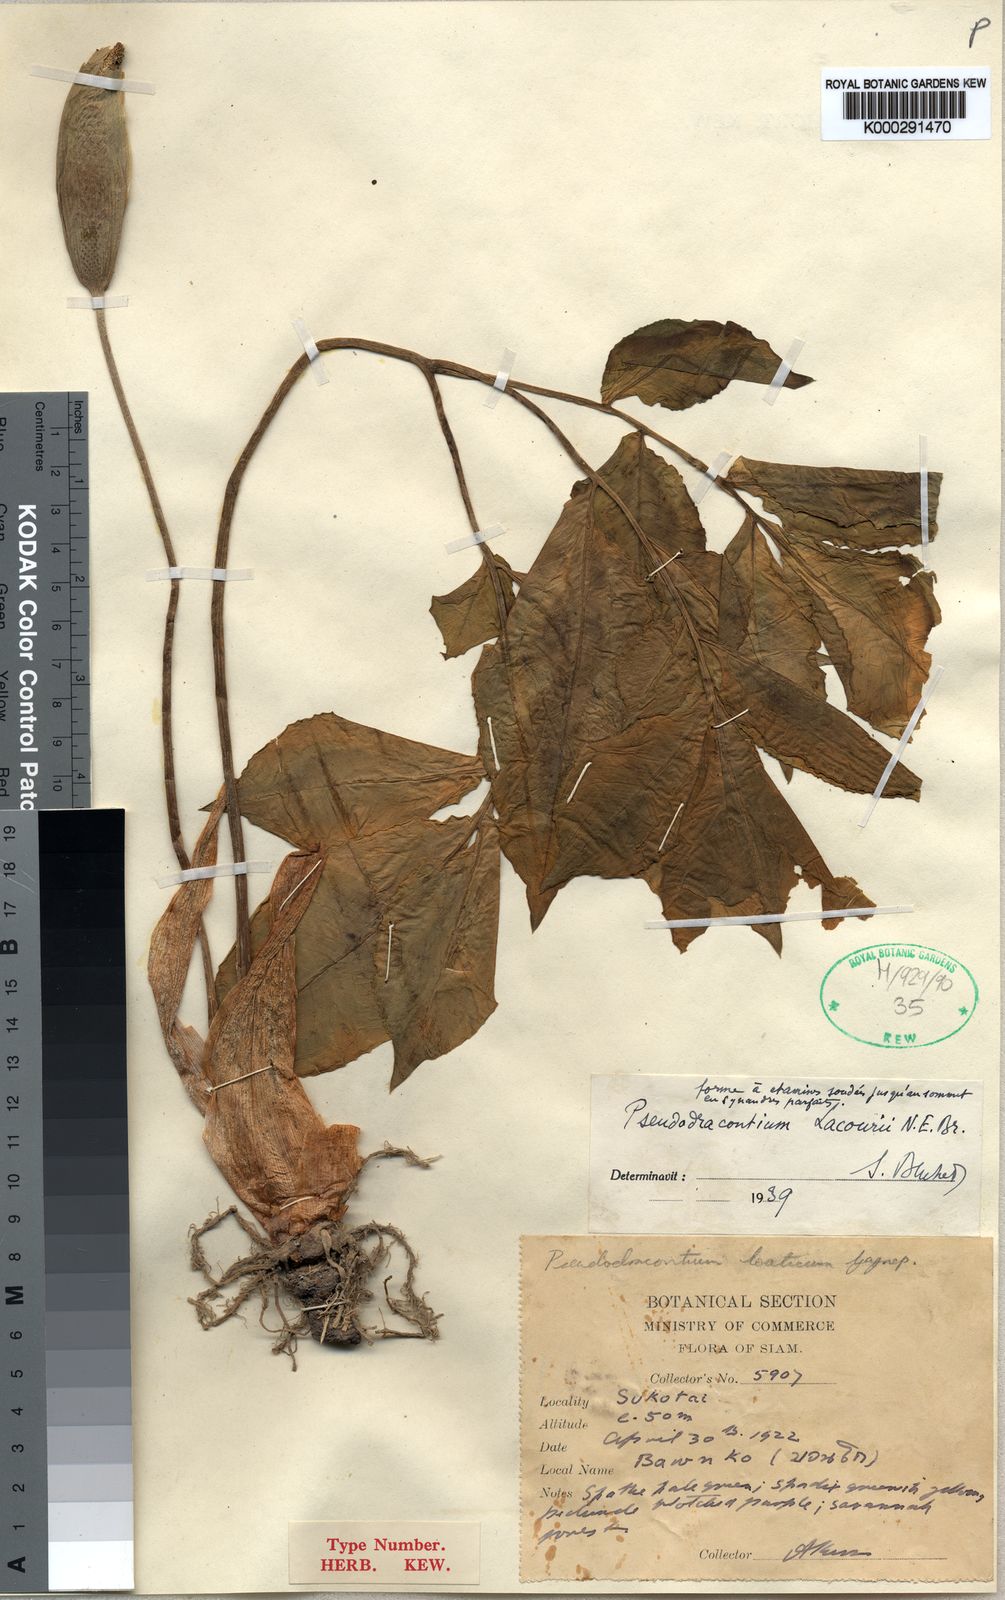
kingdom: Plantae
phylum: Tracheophyta
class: Liliopsida
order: Alismatales
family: Araceae
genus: Amorphophallus
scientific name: Amorphophallus
